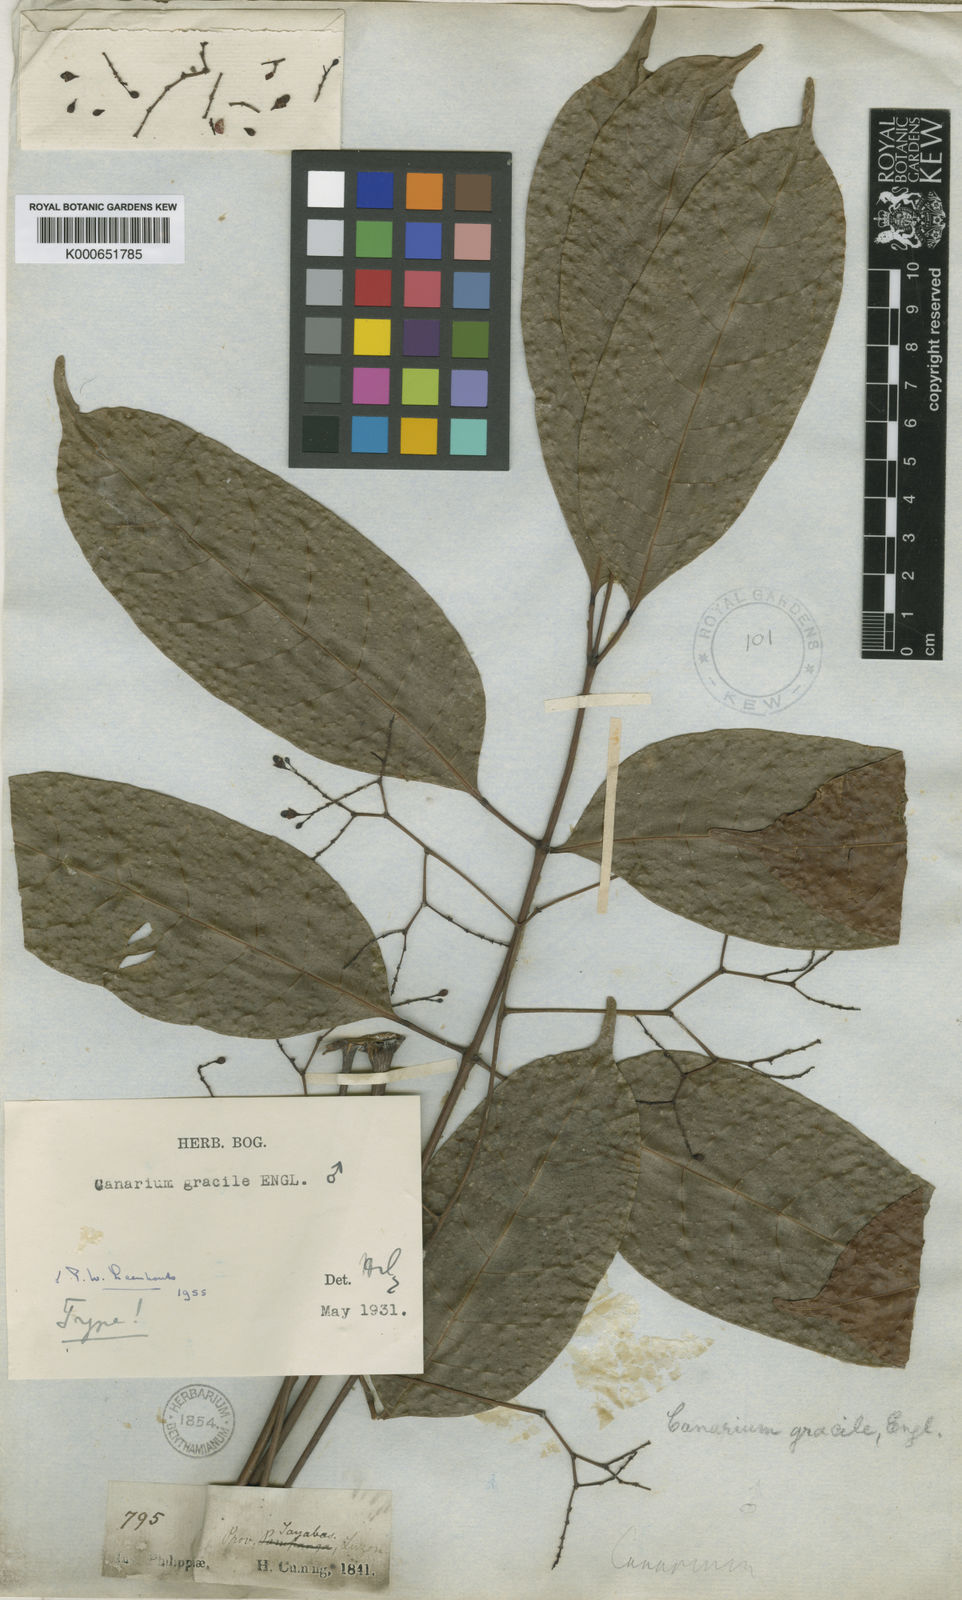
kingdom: Plantae
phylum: Tracheophyta
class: Magnoliopsida
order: Sapindales
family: Burseraceae
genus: Canarium
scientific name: Canarium gracile
